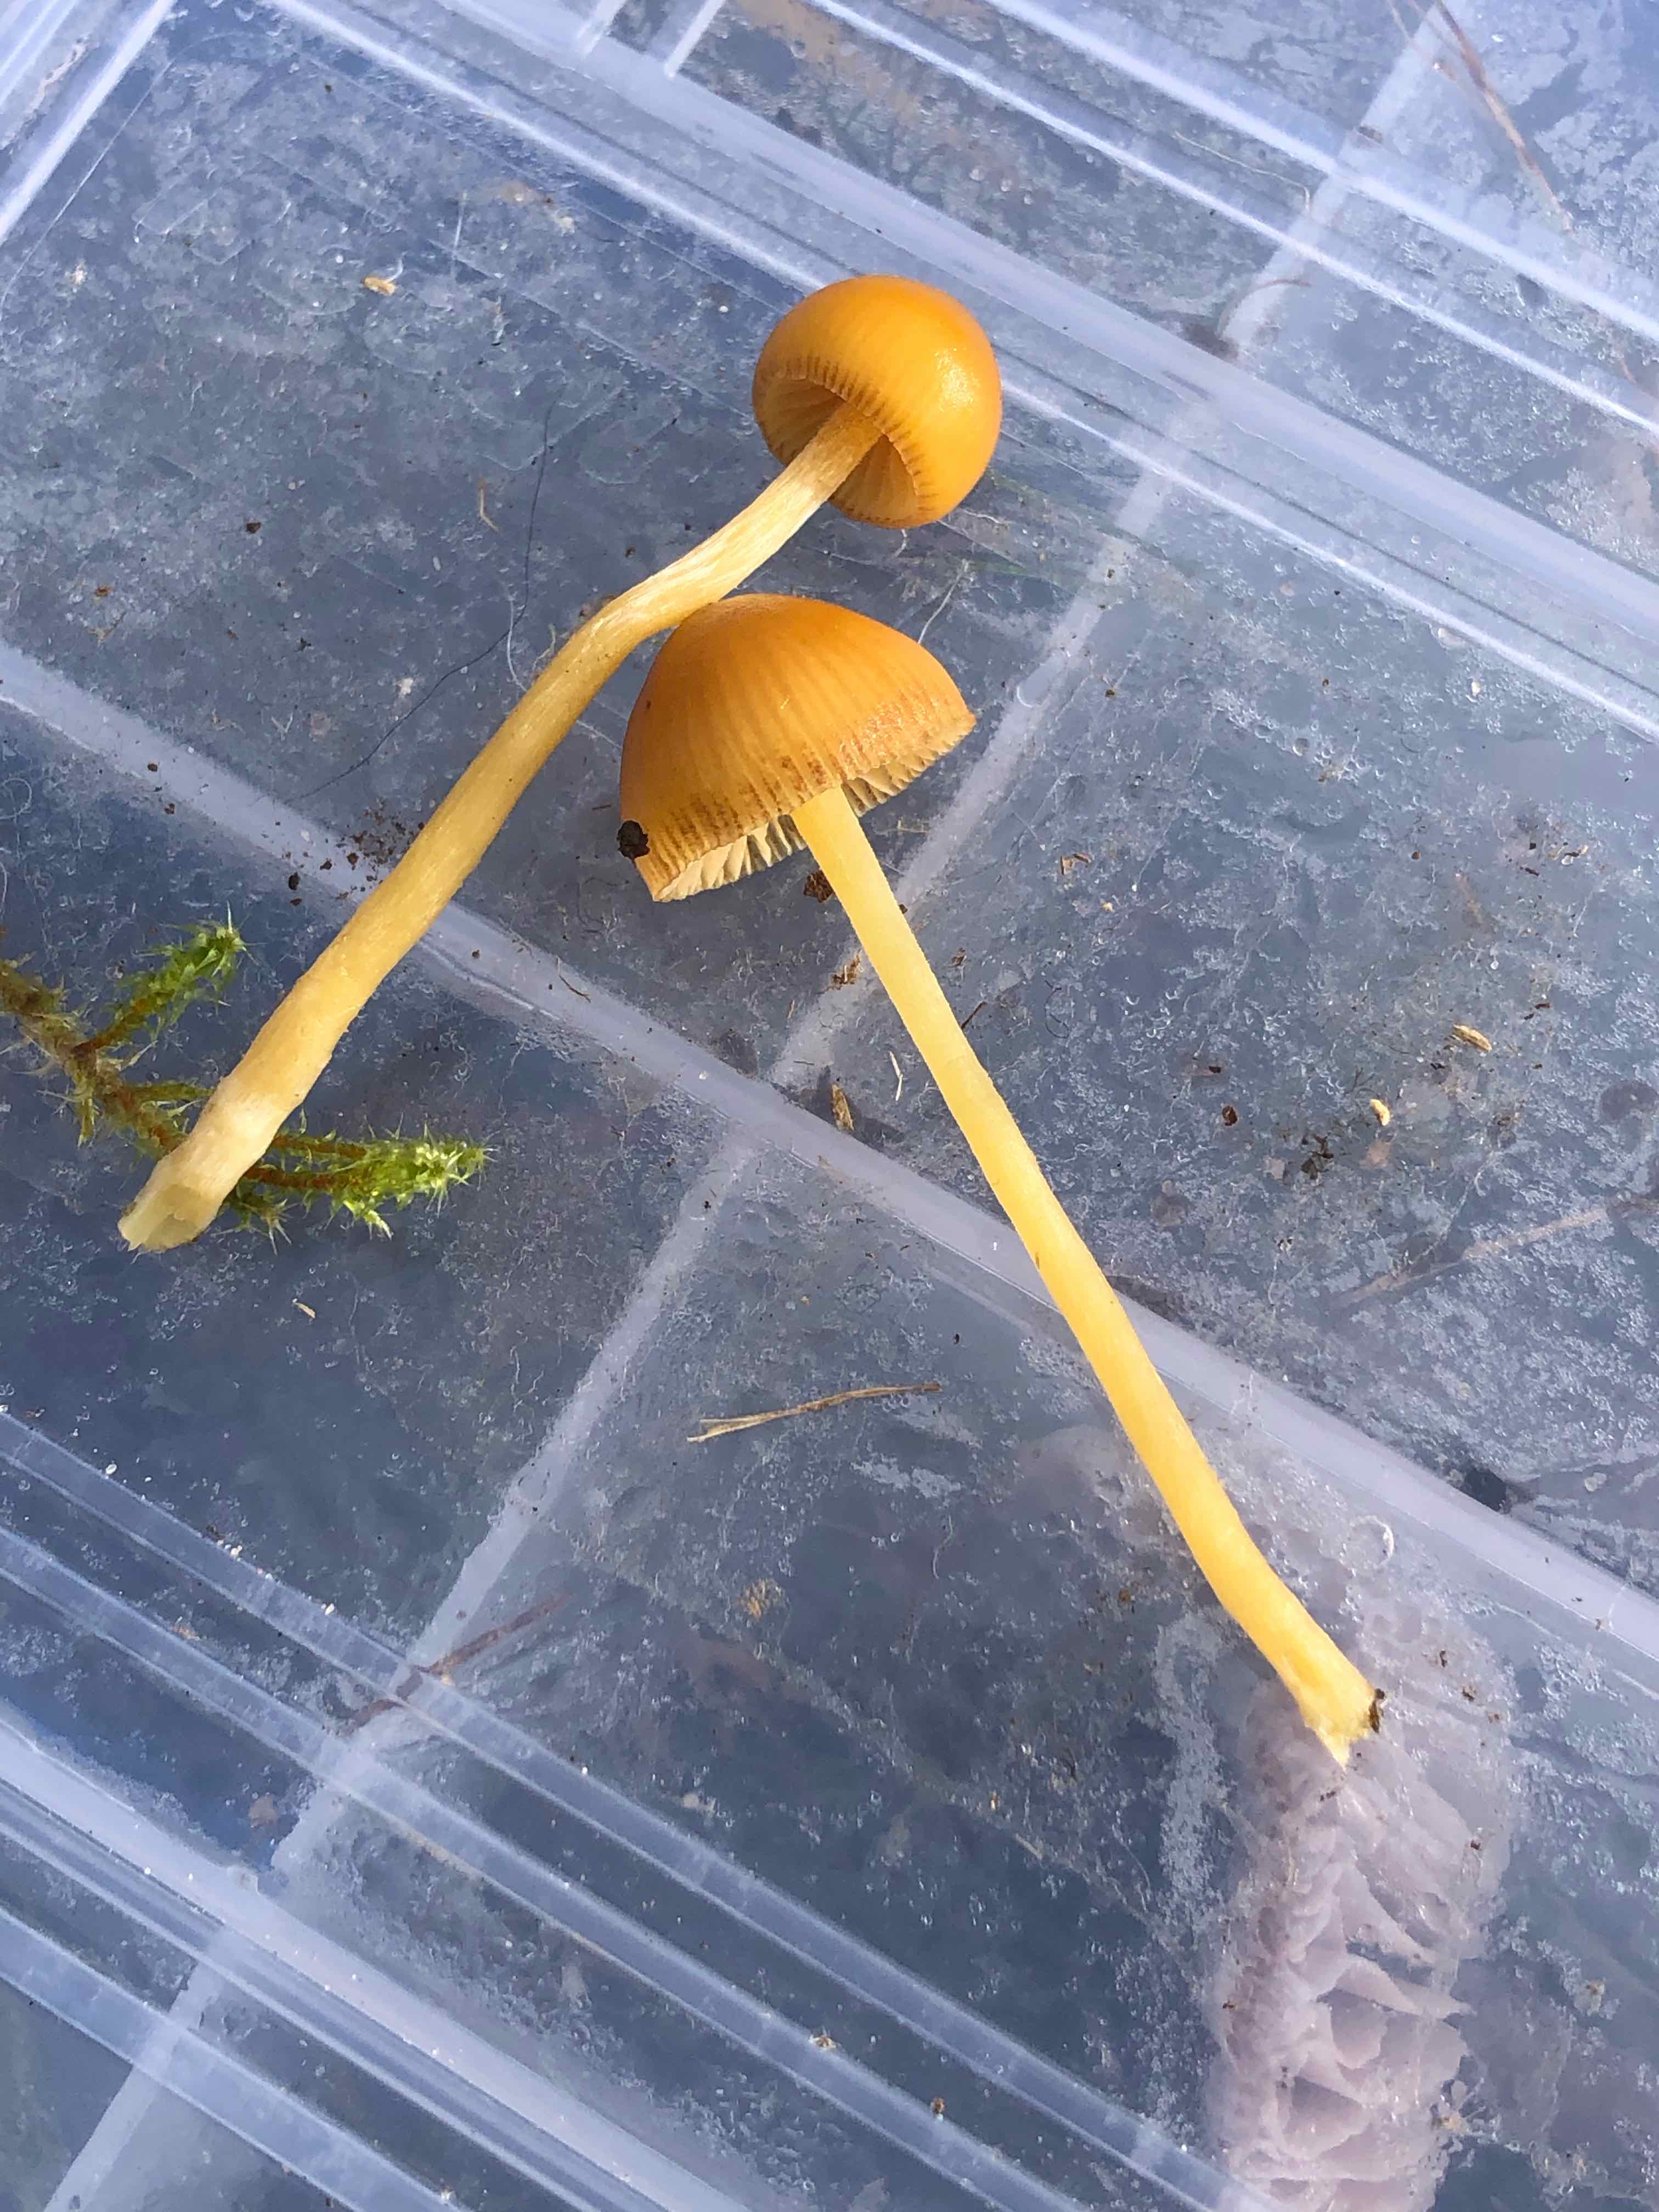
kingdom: Fungi
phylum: Basidiomycota
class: Agaricomycetes
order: Agaricales
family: Hymenogastraceae
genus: Galerina
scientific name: Galerina pumila
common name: honninggul hjelmhat
